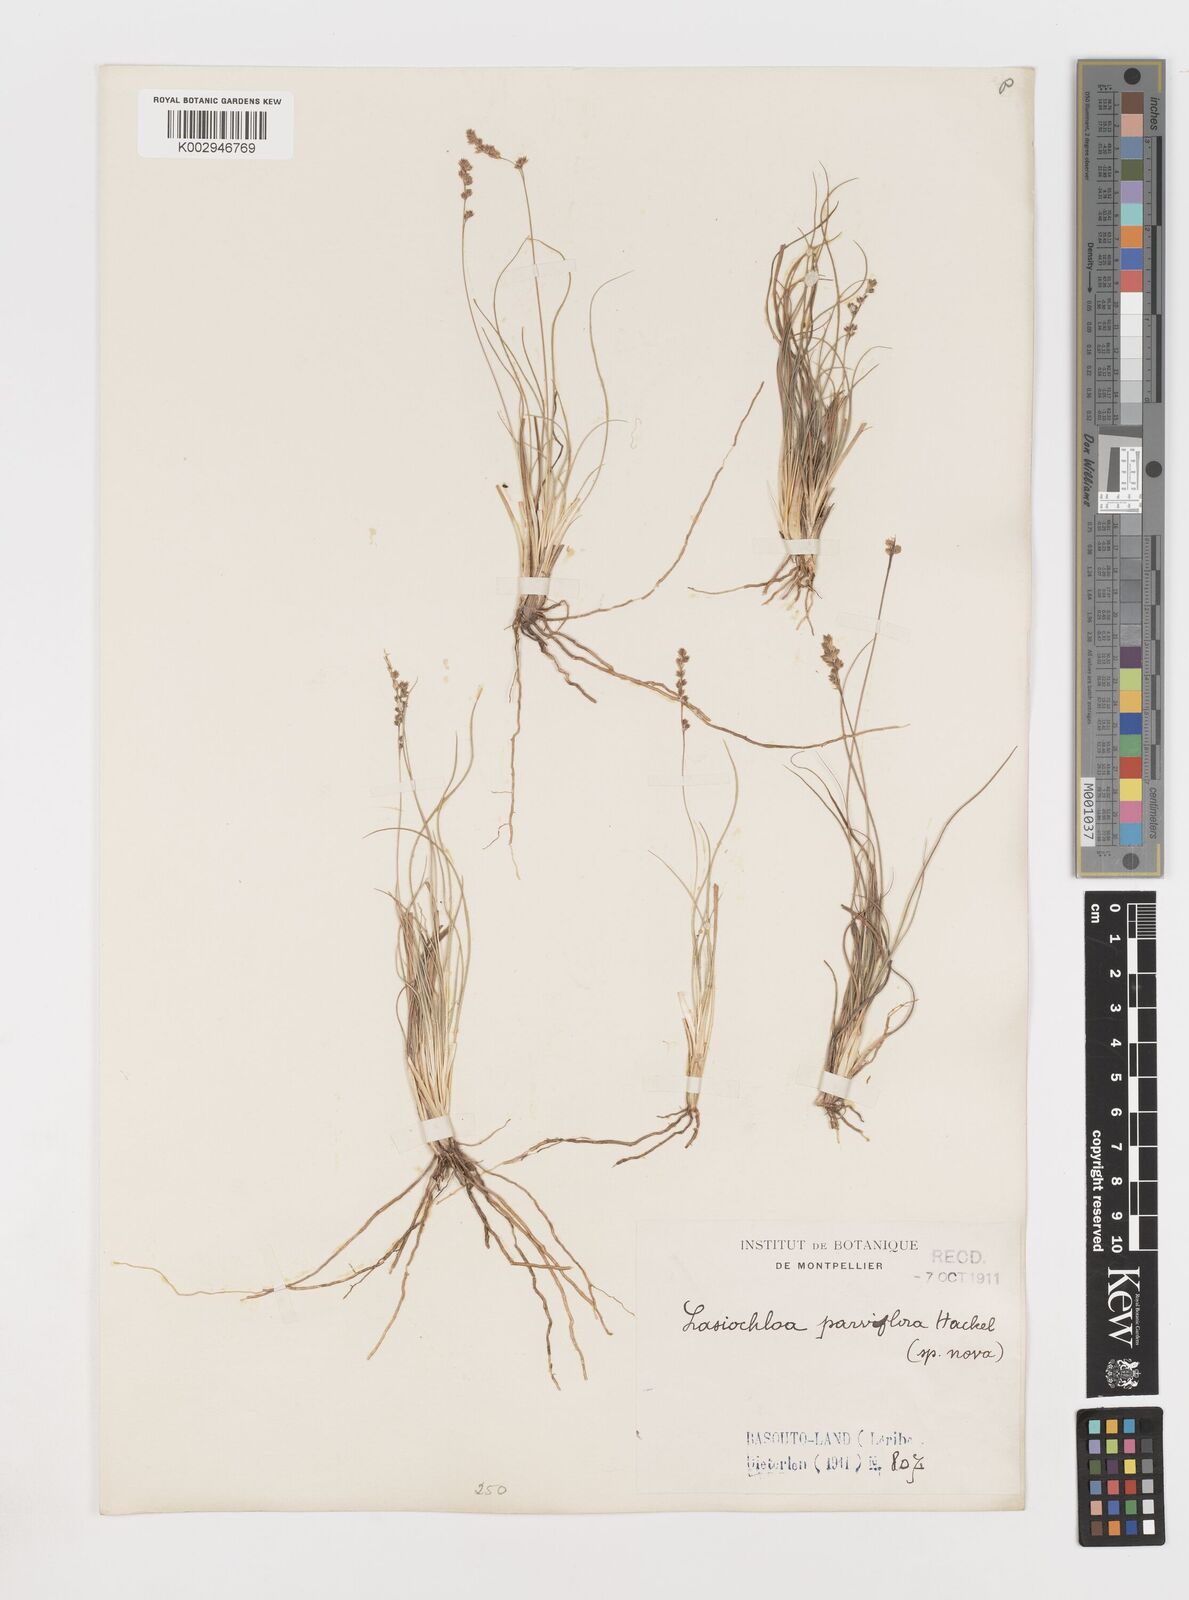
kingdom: Plantae
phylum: Tracheophyta
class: Liliopsida
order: Poales
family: Poaceae
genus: Stiburus
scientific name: Stiburus conrathii
